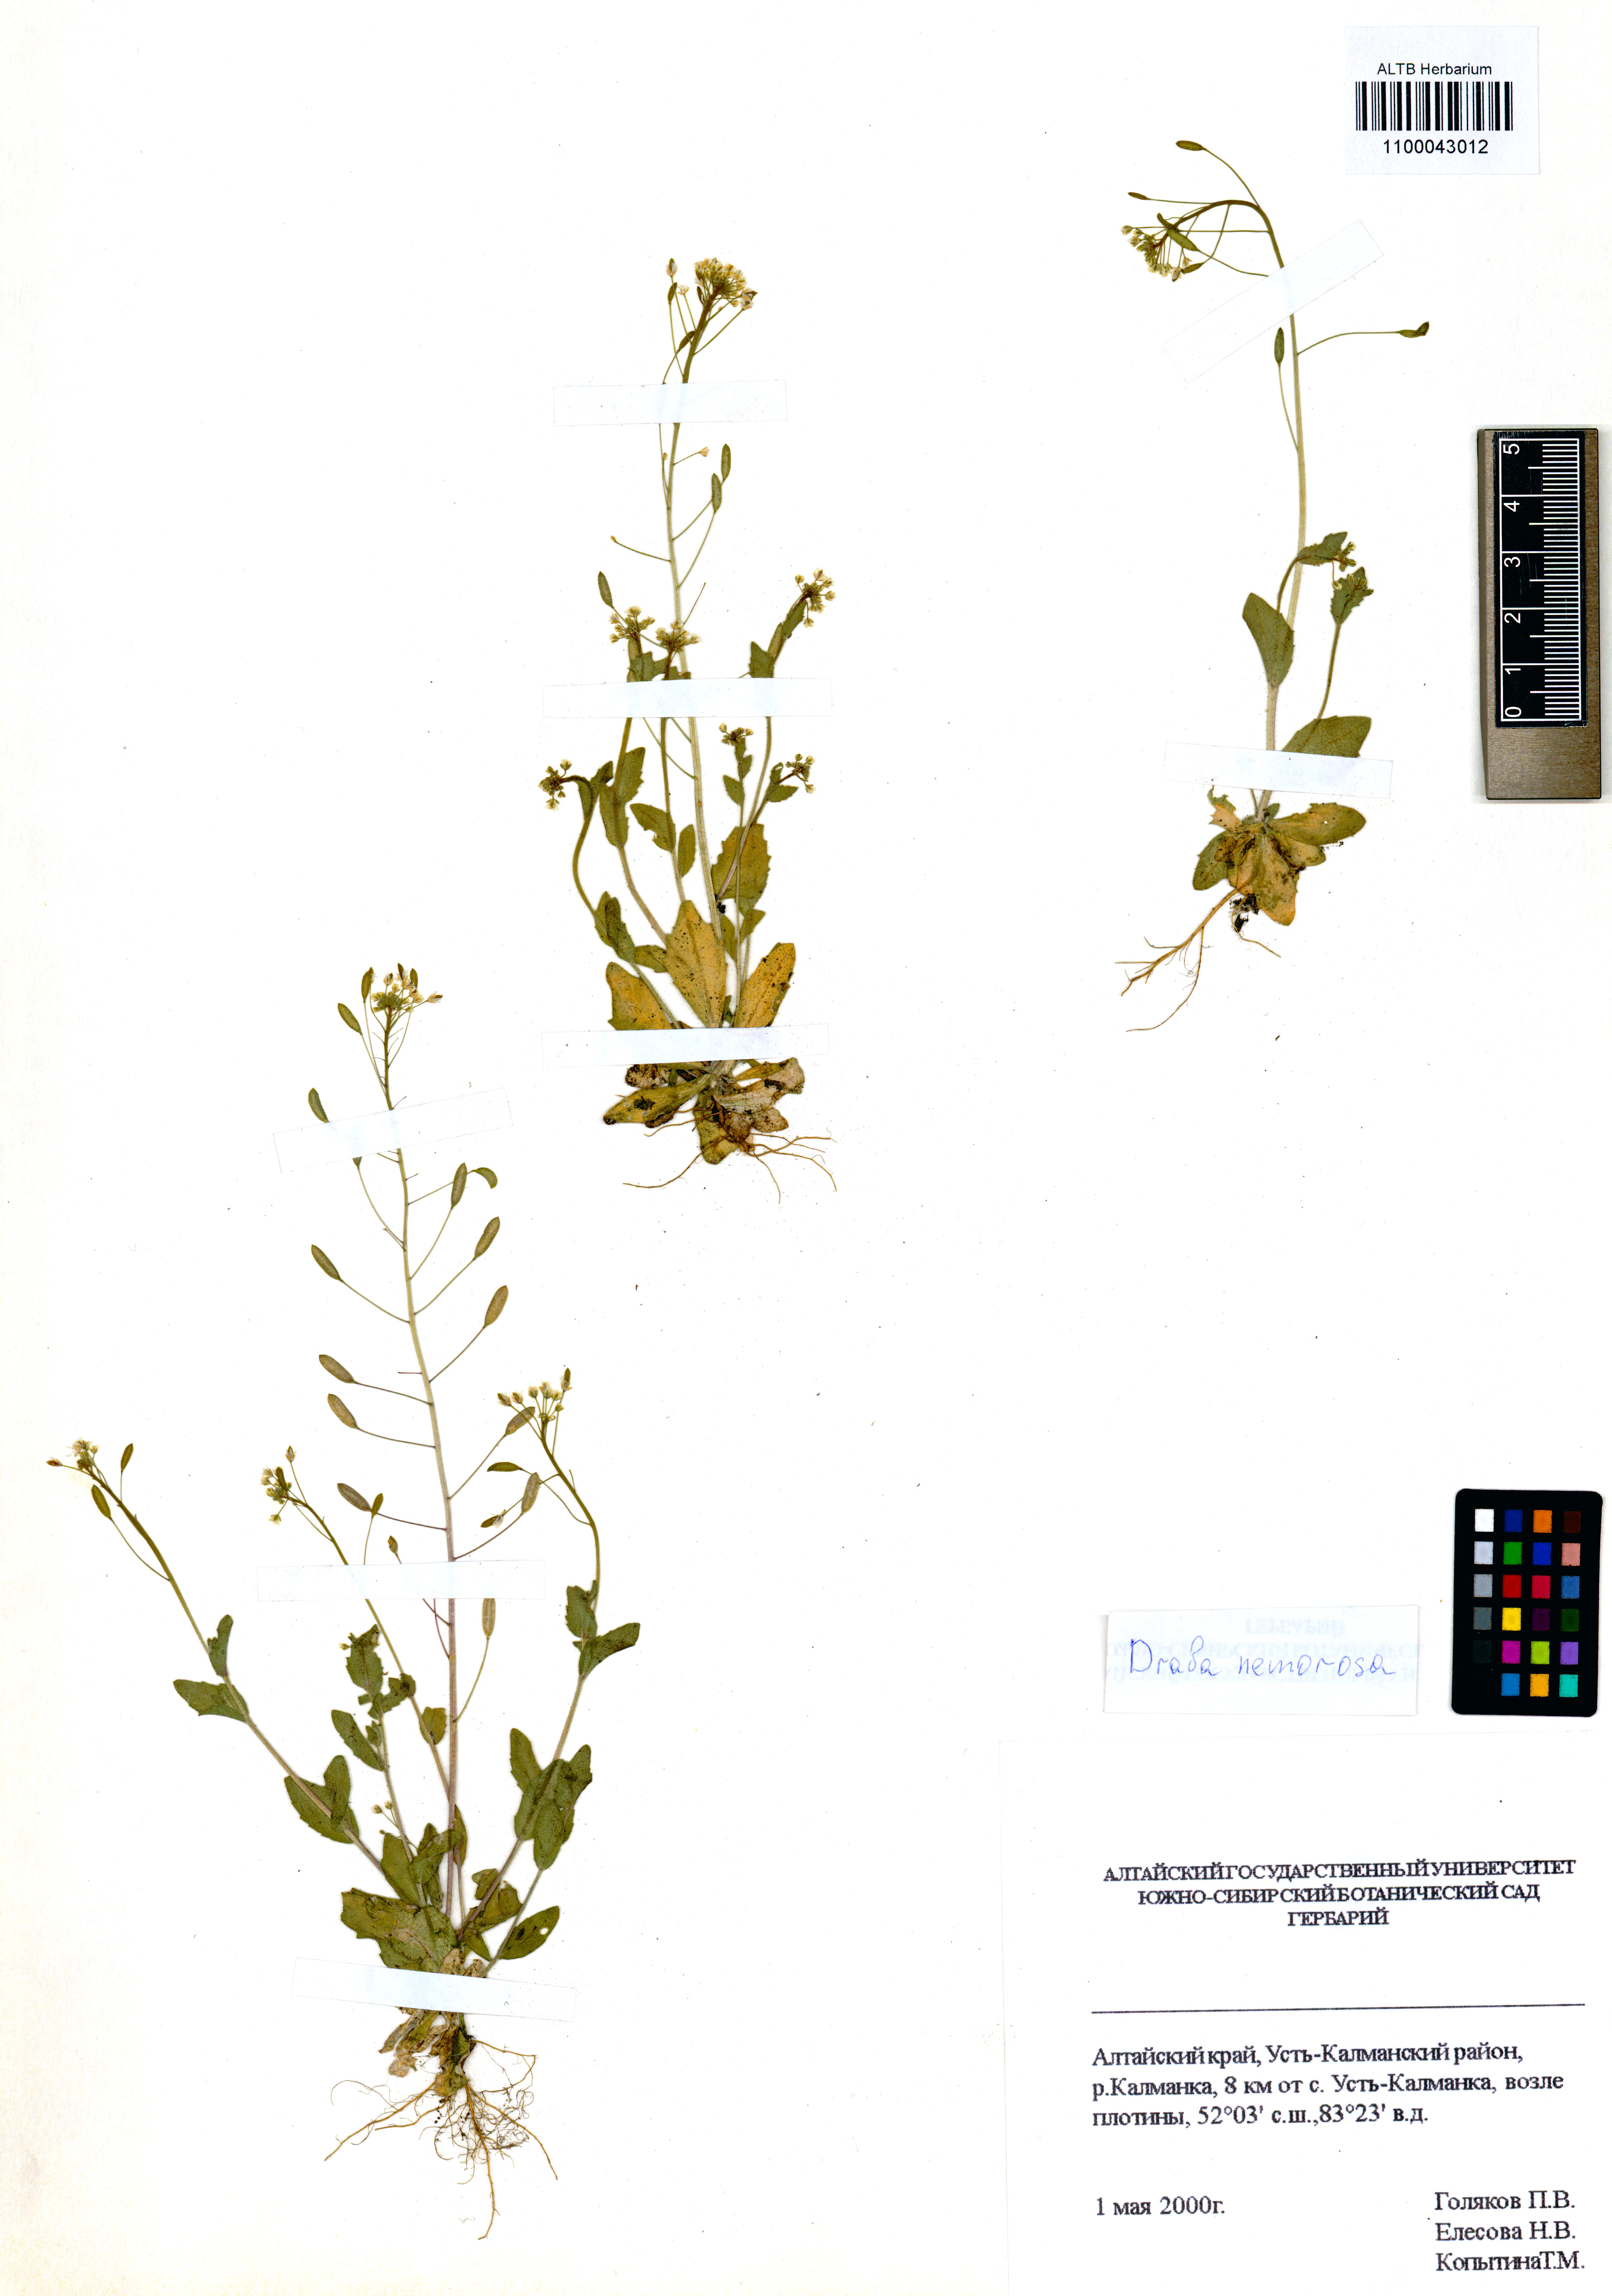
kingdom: Plantae
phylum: Tracheophyta
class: Magnoliopsida
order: Brassicales
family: Brassicaceae
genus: Draba
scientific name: Draba nemorosa
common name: Wood whitlow-grass
